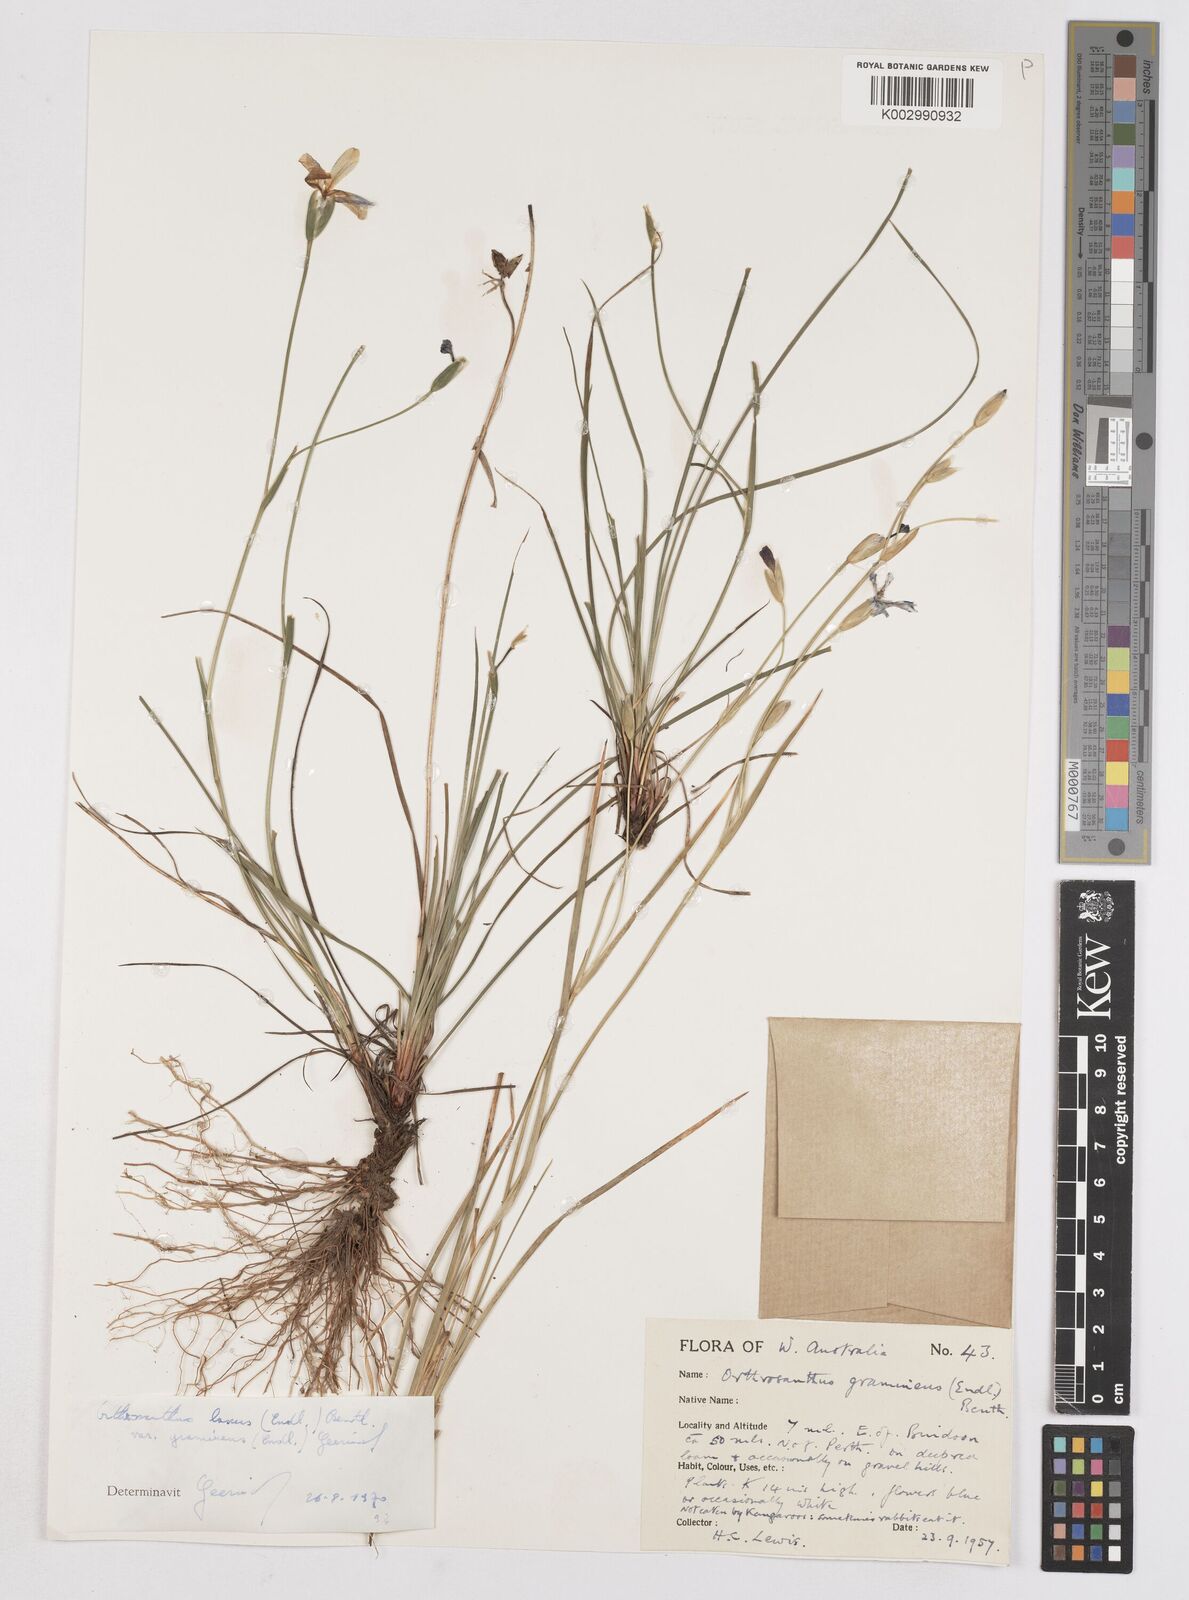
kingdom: Plantae
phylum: Tracheophyta
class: Liliopsida
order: Asparagales
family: Iridaceae
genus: Orthrosanthus
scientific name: Orthrosanthus laxus
